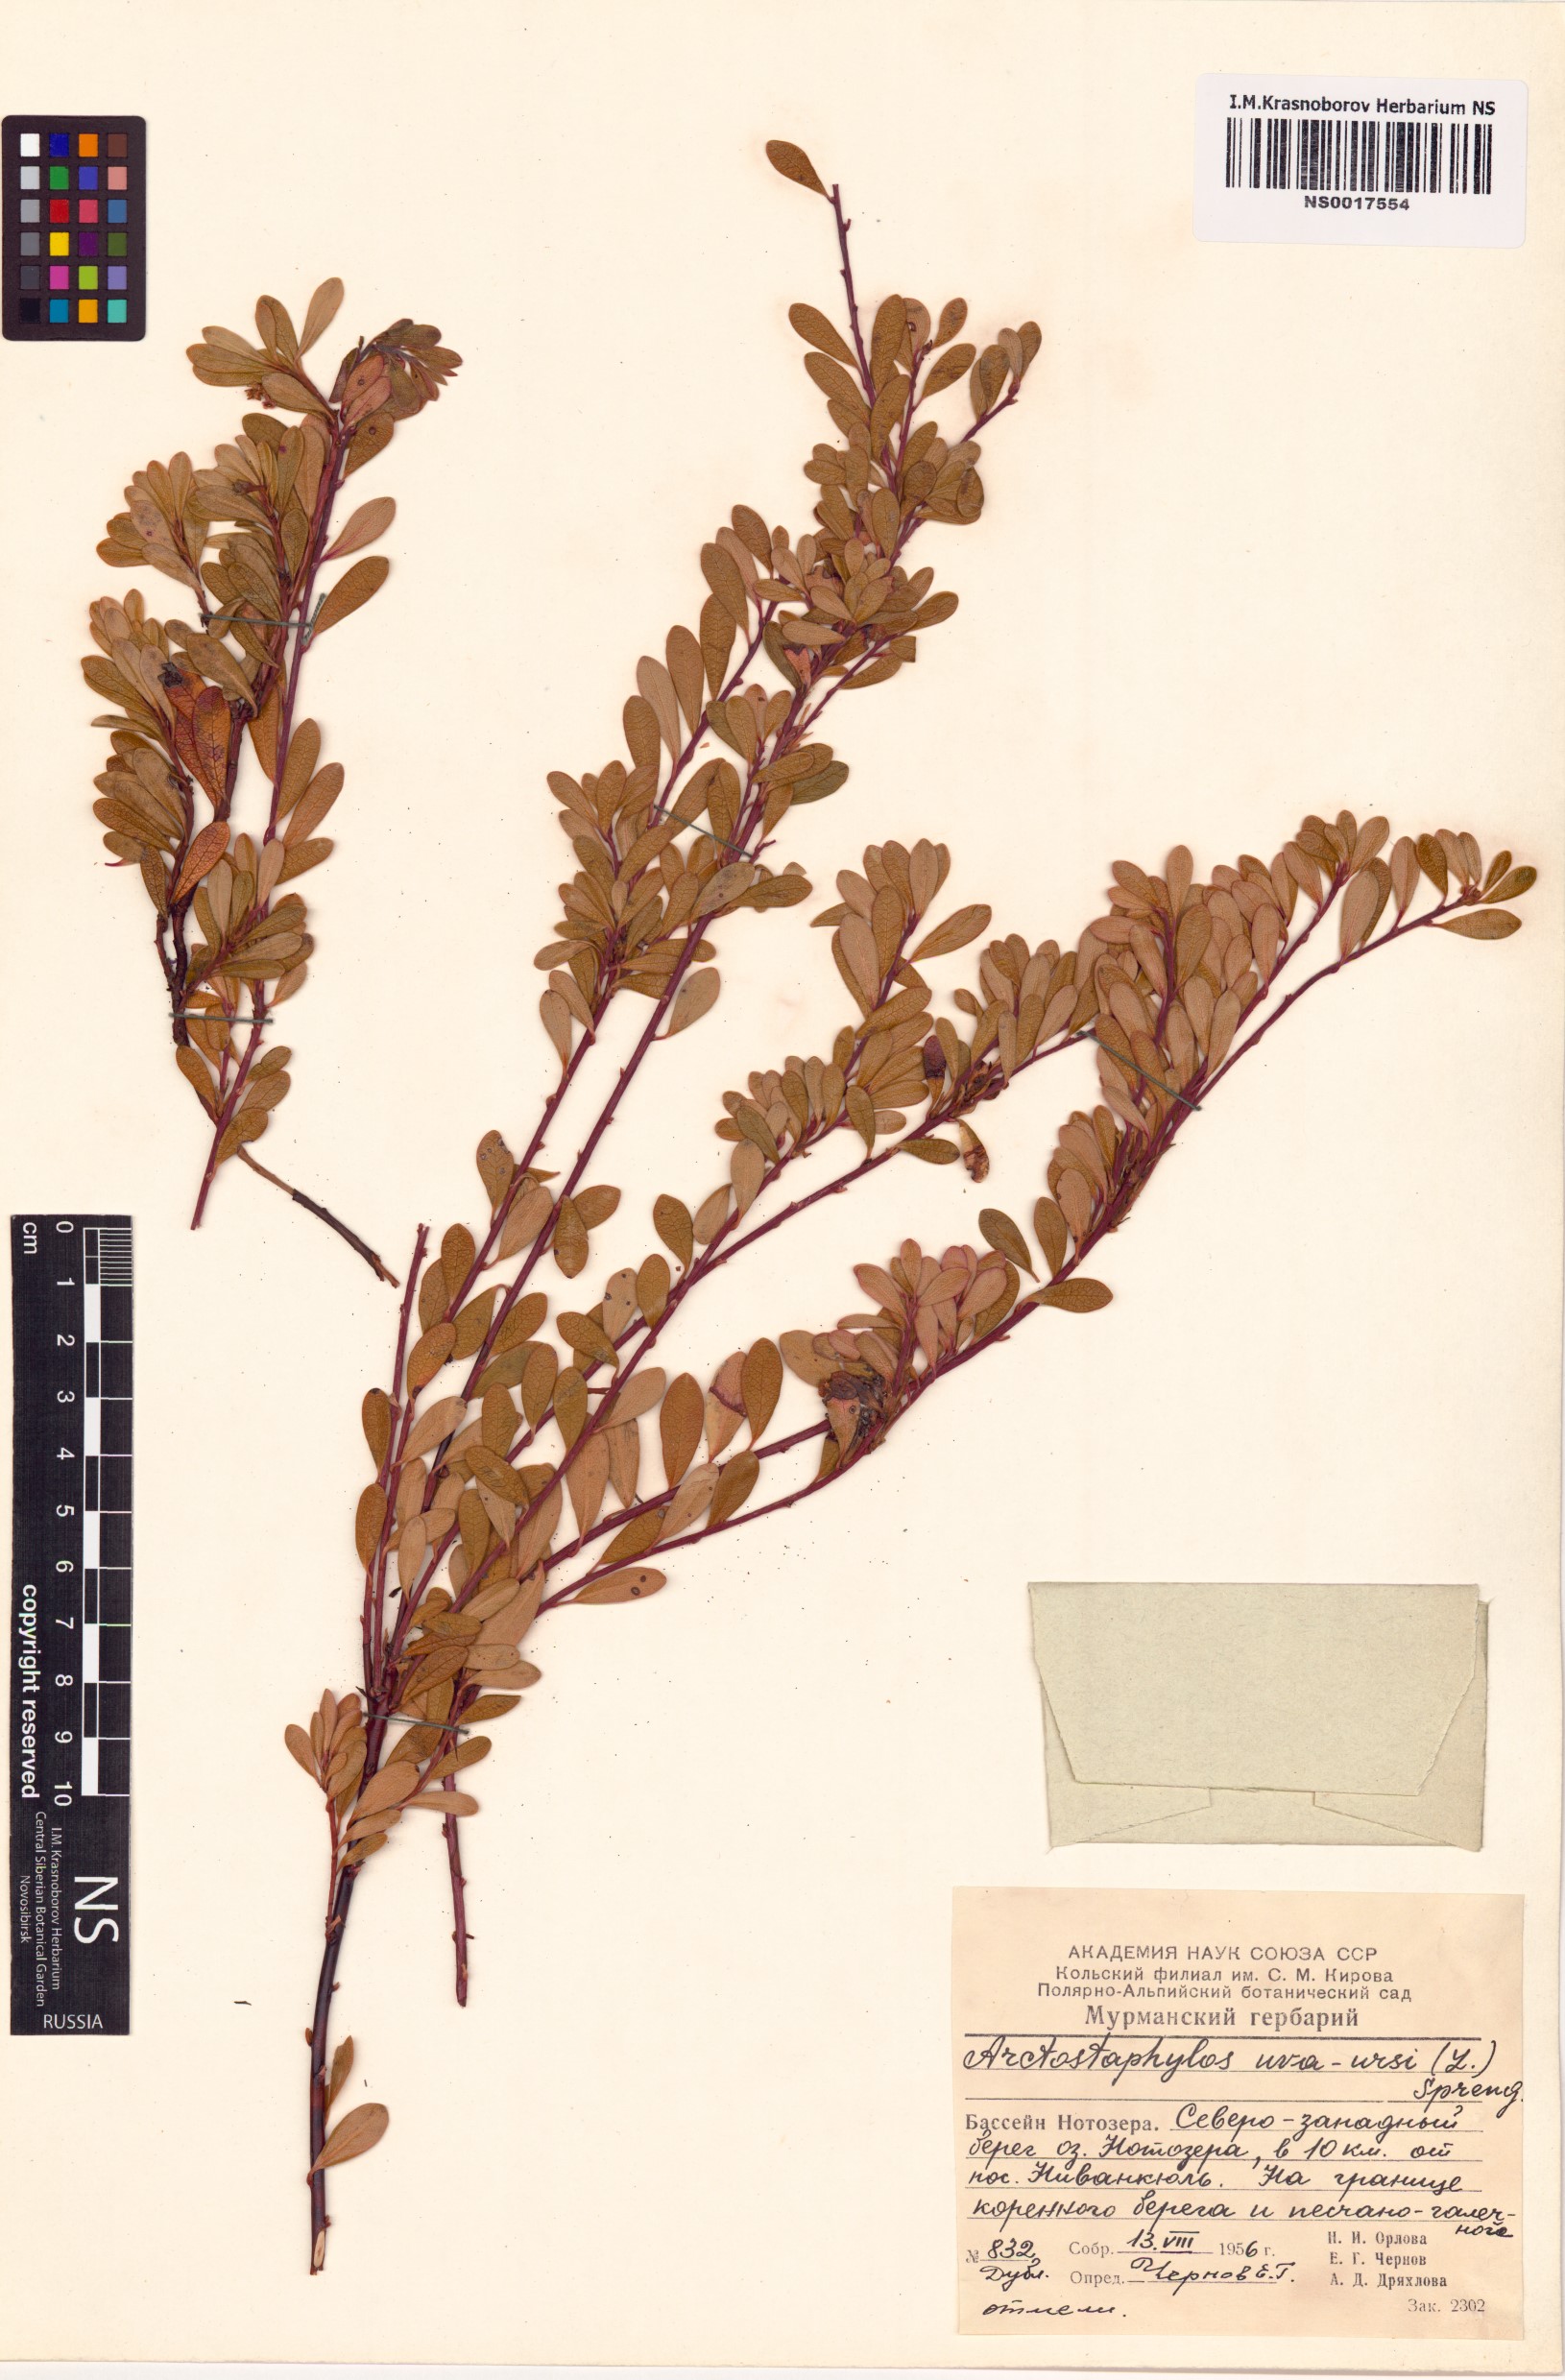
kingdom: Plantae
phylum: Tracheophyta
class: Magnoliopsida
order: Ericales
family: Ericaceae
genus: Arctostaphylos
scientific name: Arctostaphylos uva-ursi
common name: Bearberry
